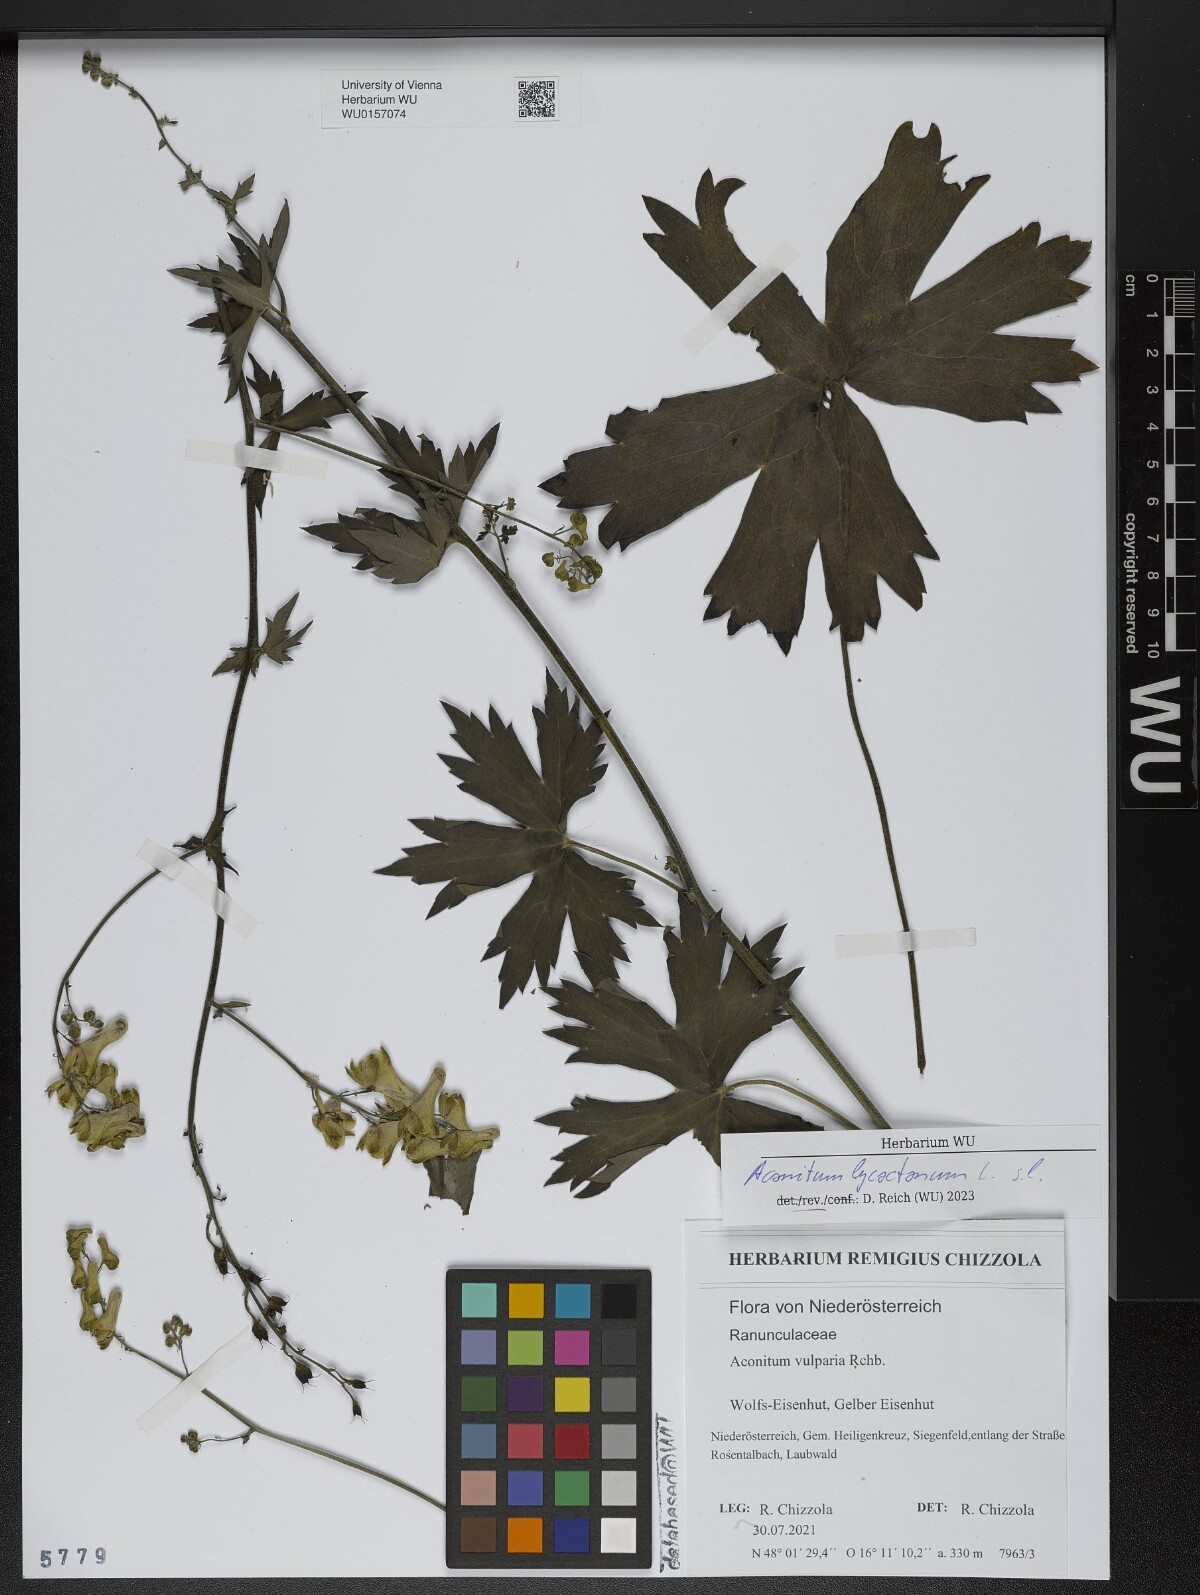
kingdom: Plantae
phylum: Tracheophyta
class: Magnoliopsida
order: Ranunculales
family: Ranunculaceae
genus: Aconitum
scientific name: Aconitum lycoctonum
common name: Wolf's-bane
